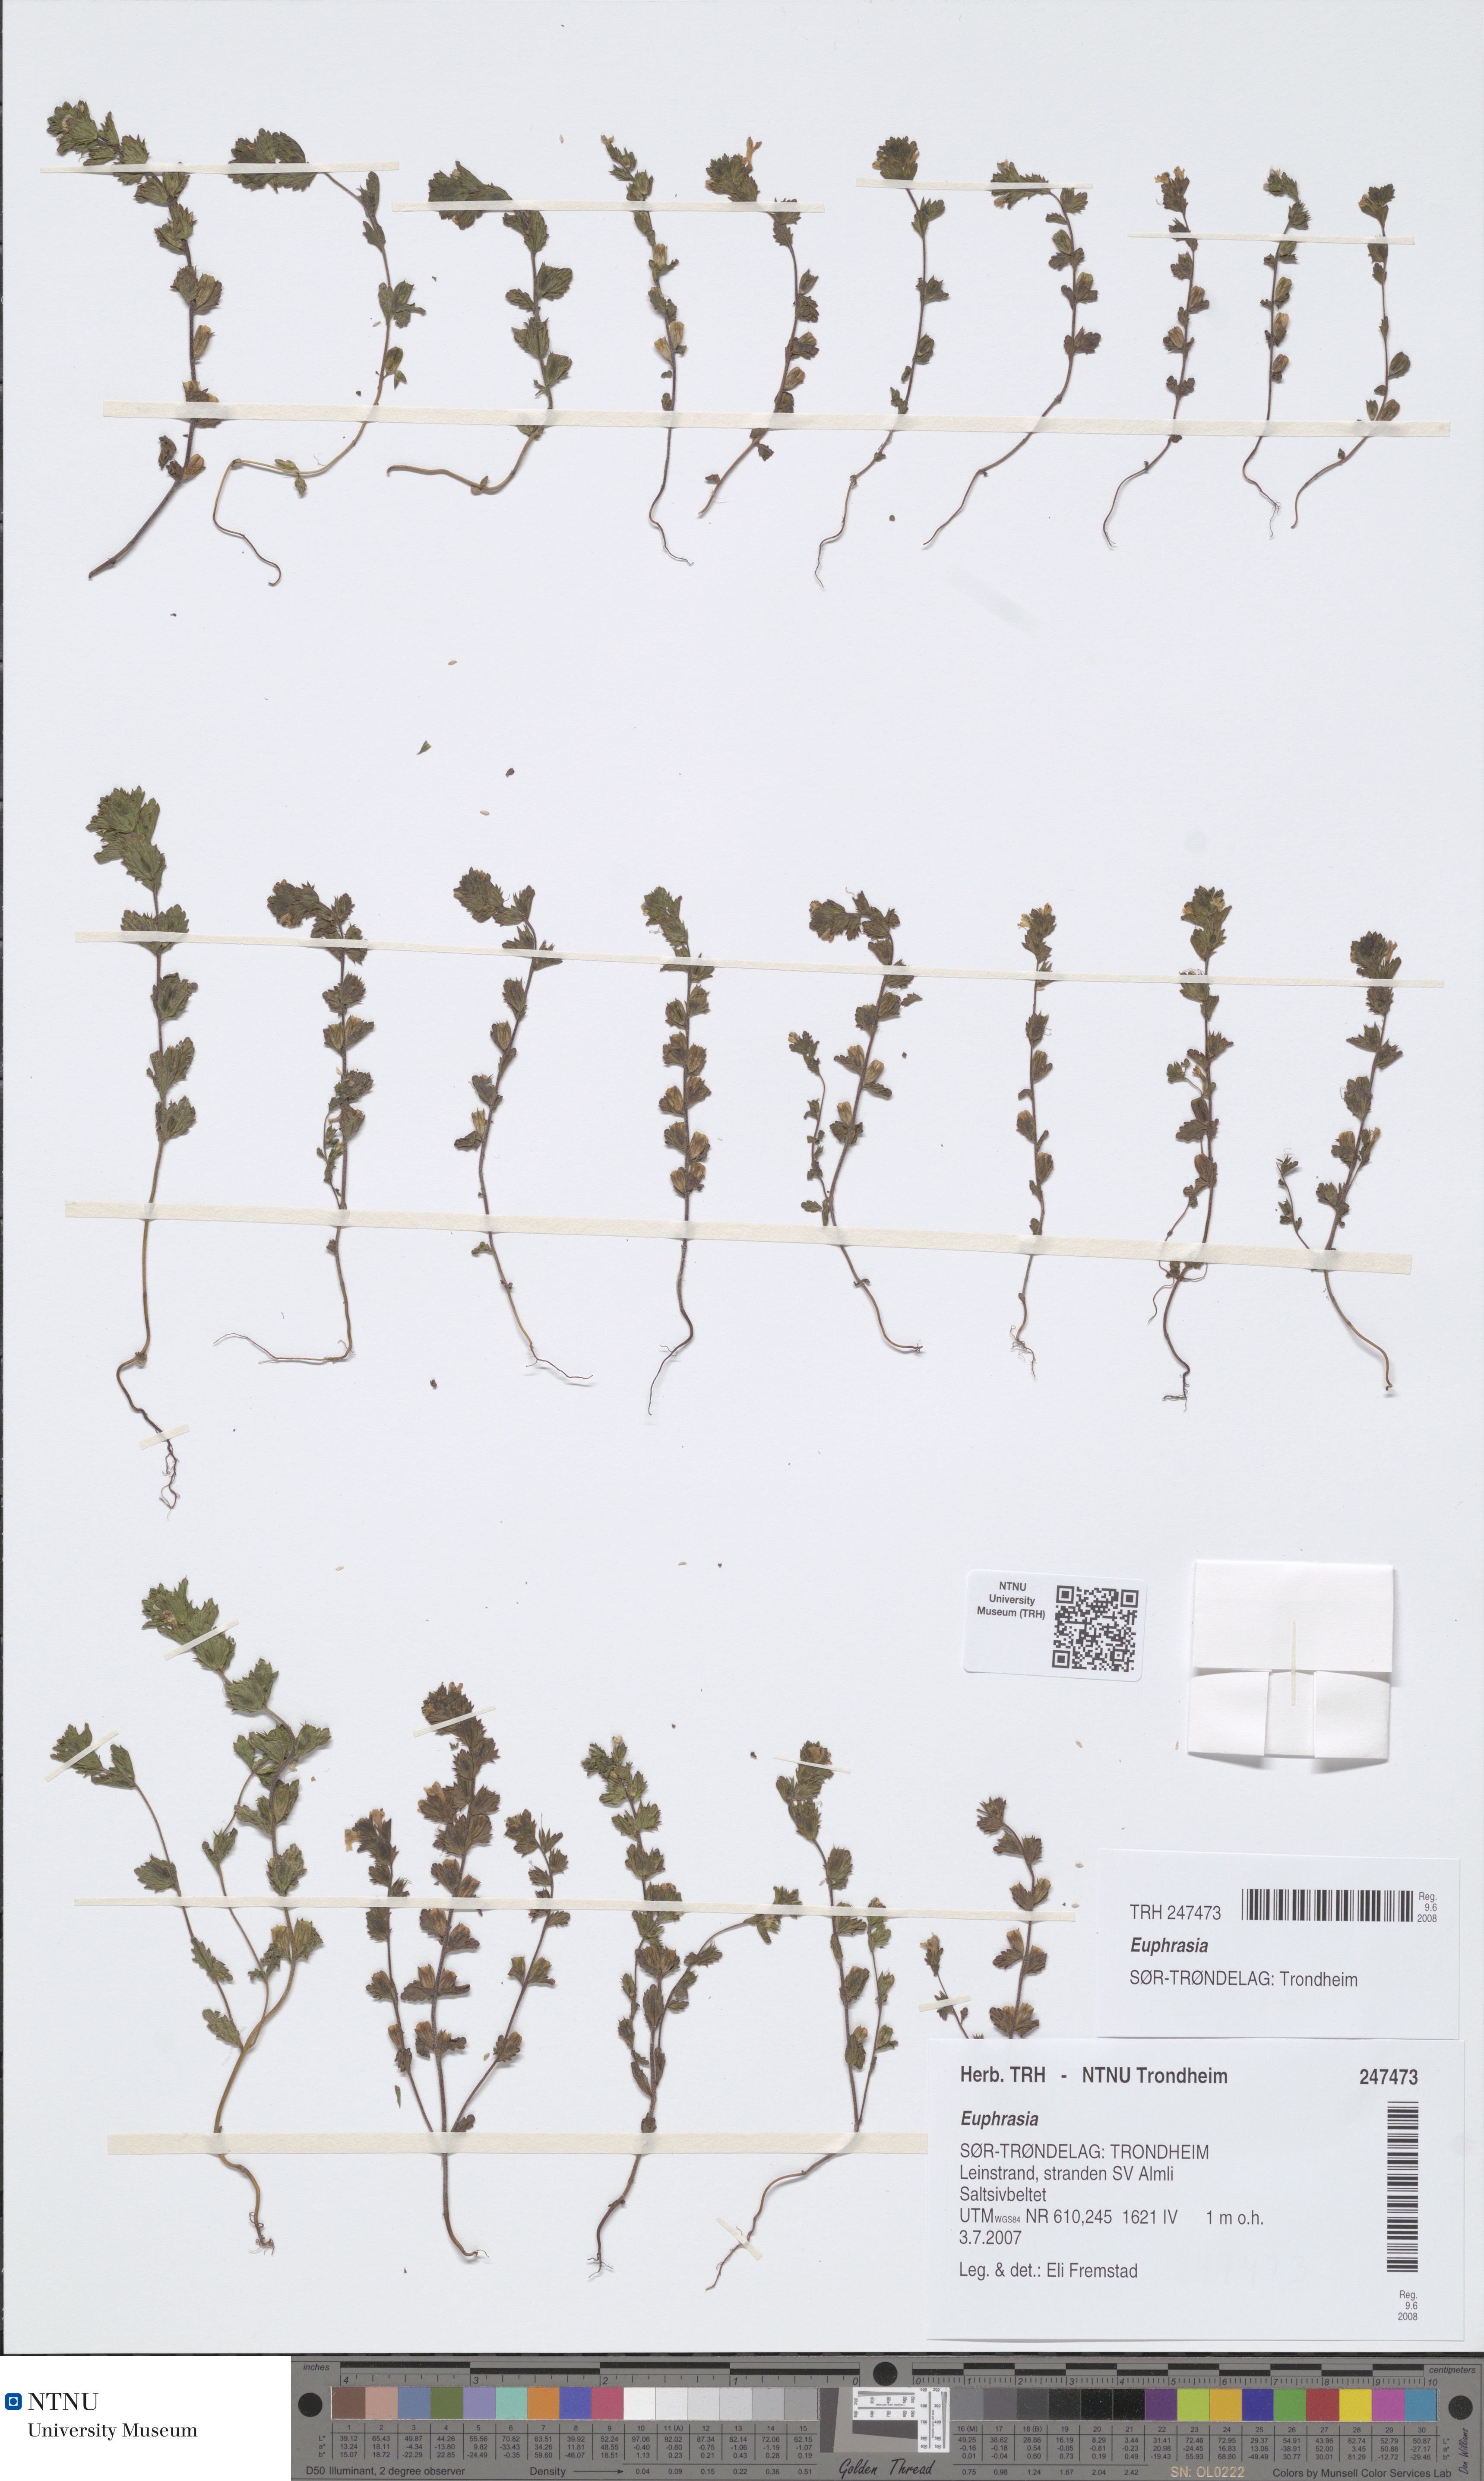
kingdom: Plantae
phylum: Tracheophyta
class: Magnoliopsida
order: Lamiales
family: Orobanchaceae
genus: Euphrasia
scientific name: Euphrasia
